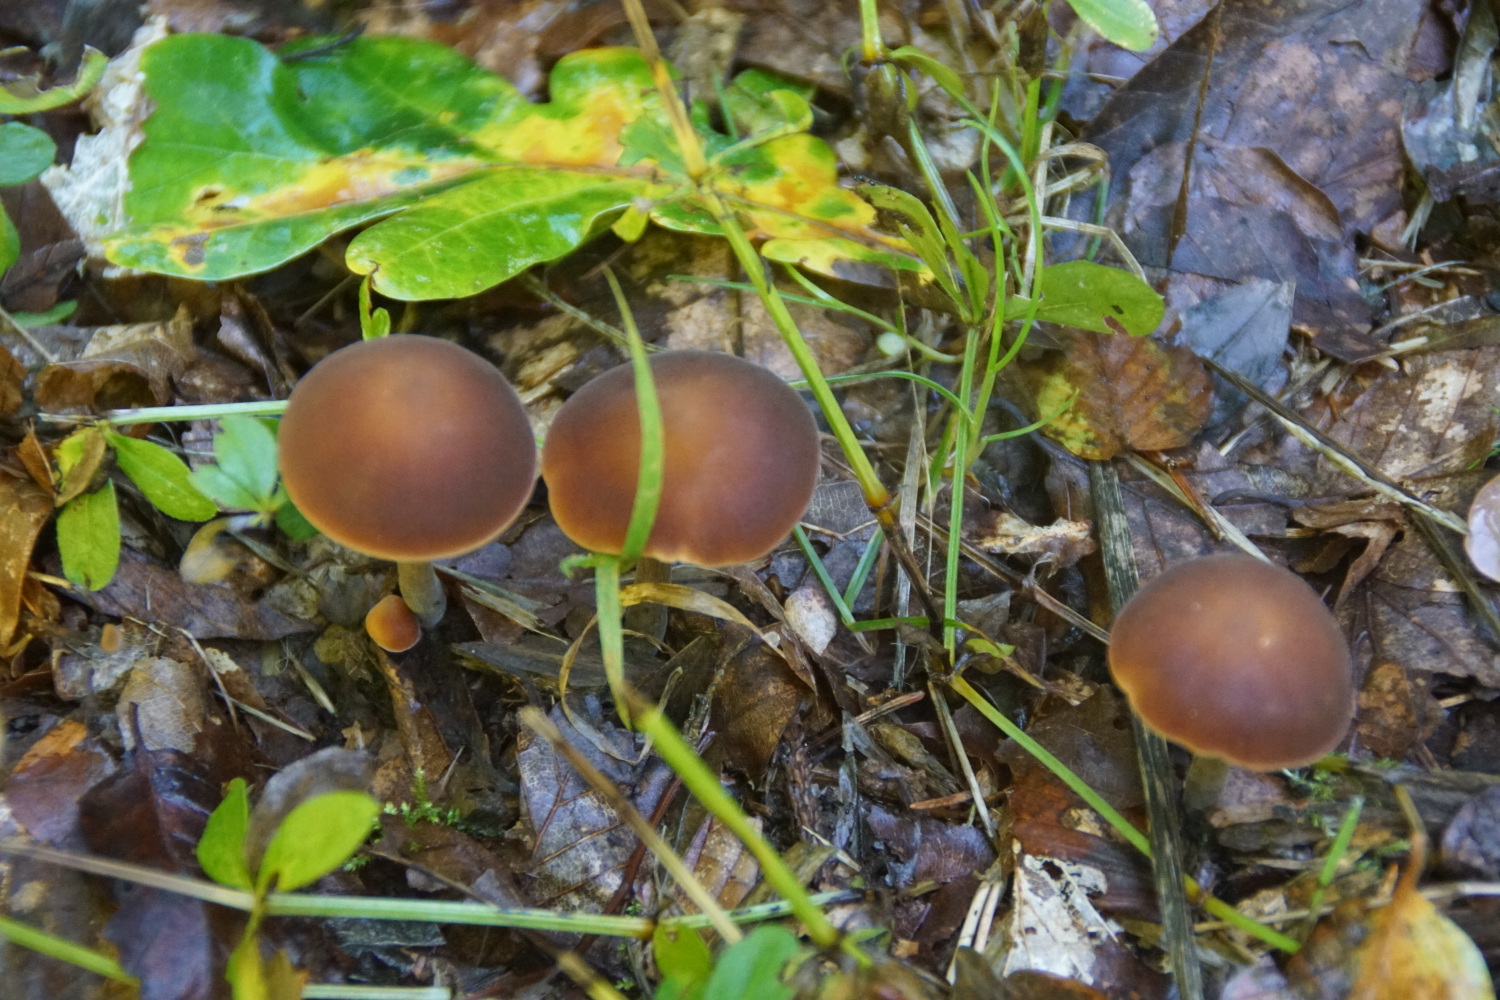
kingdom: Fungi
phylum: Basidiomycota
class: Agaricomycetes
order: Agaricales
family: Macrocystidiaceae
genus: Macrocystidia
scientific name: Macrocystidia cucumis
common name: agurkehat
